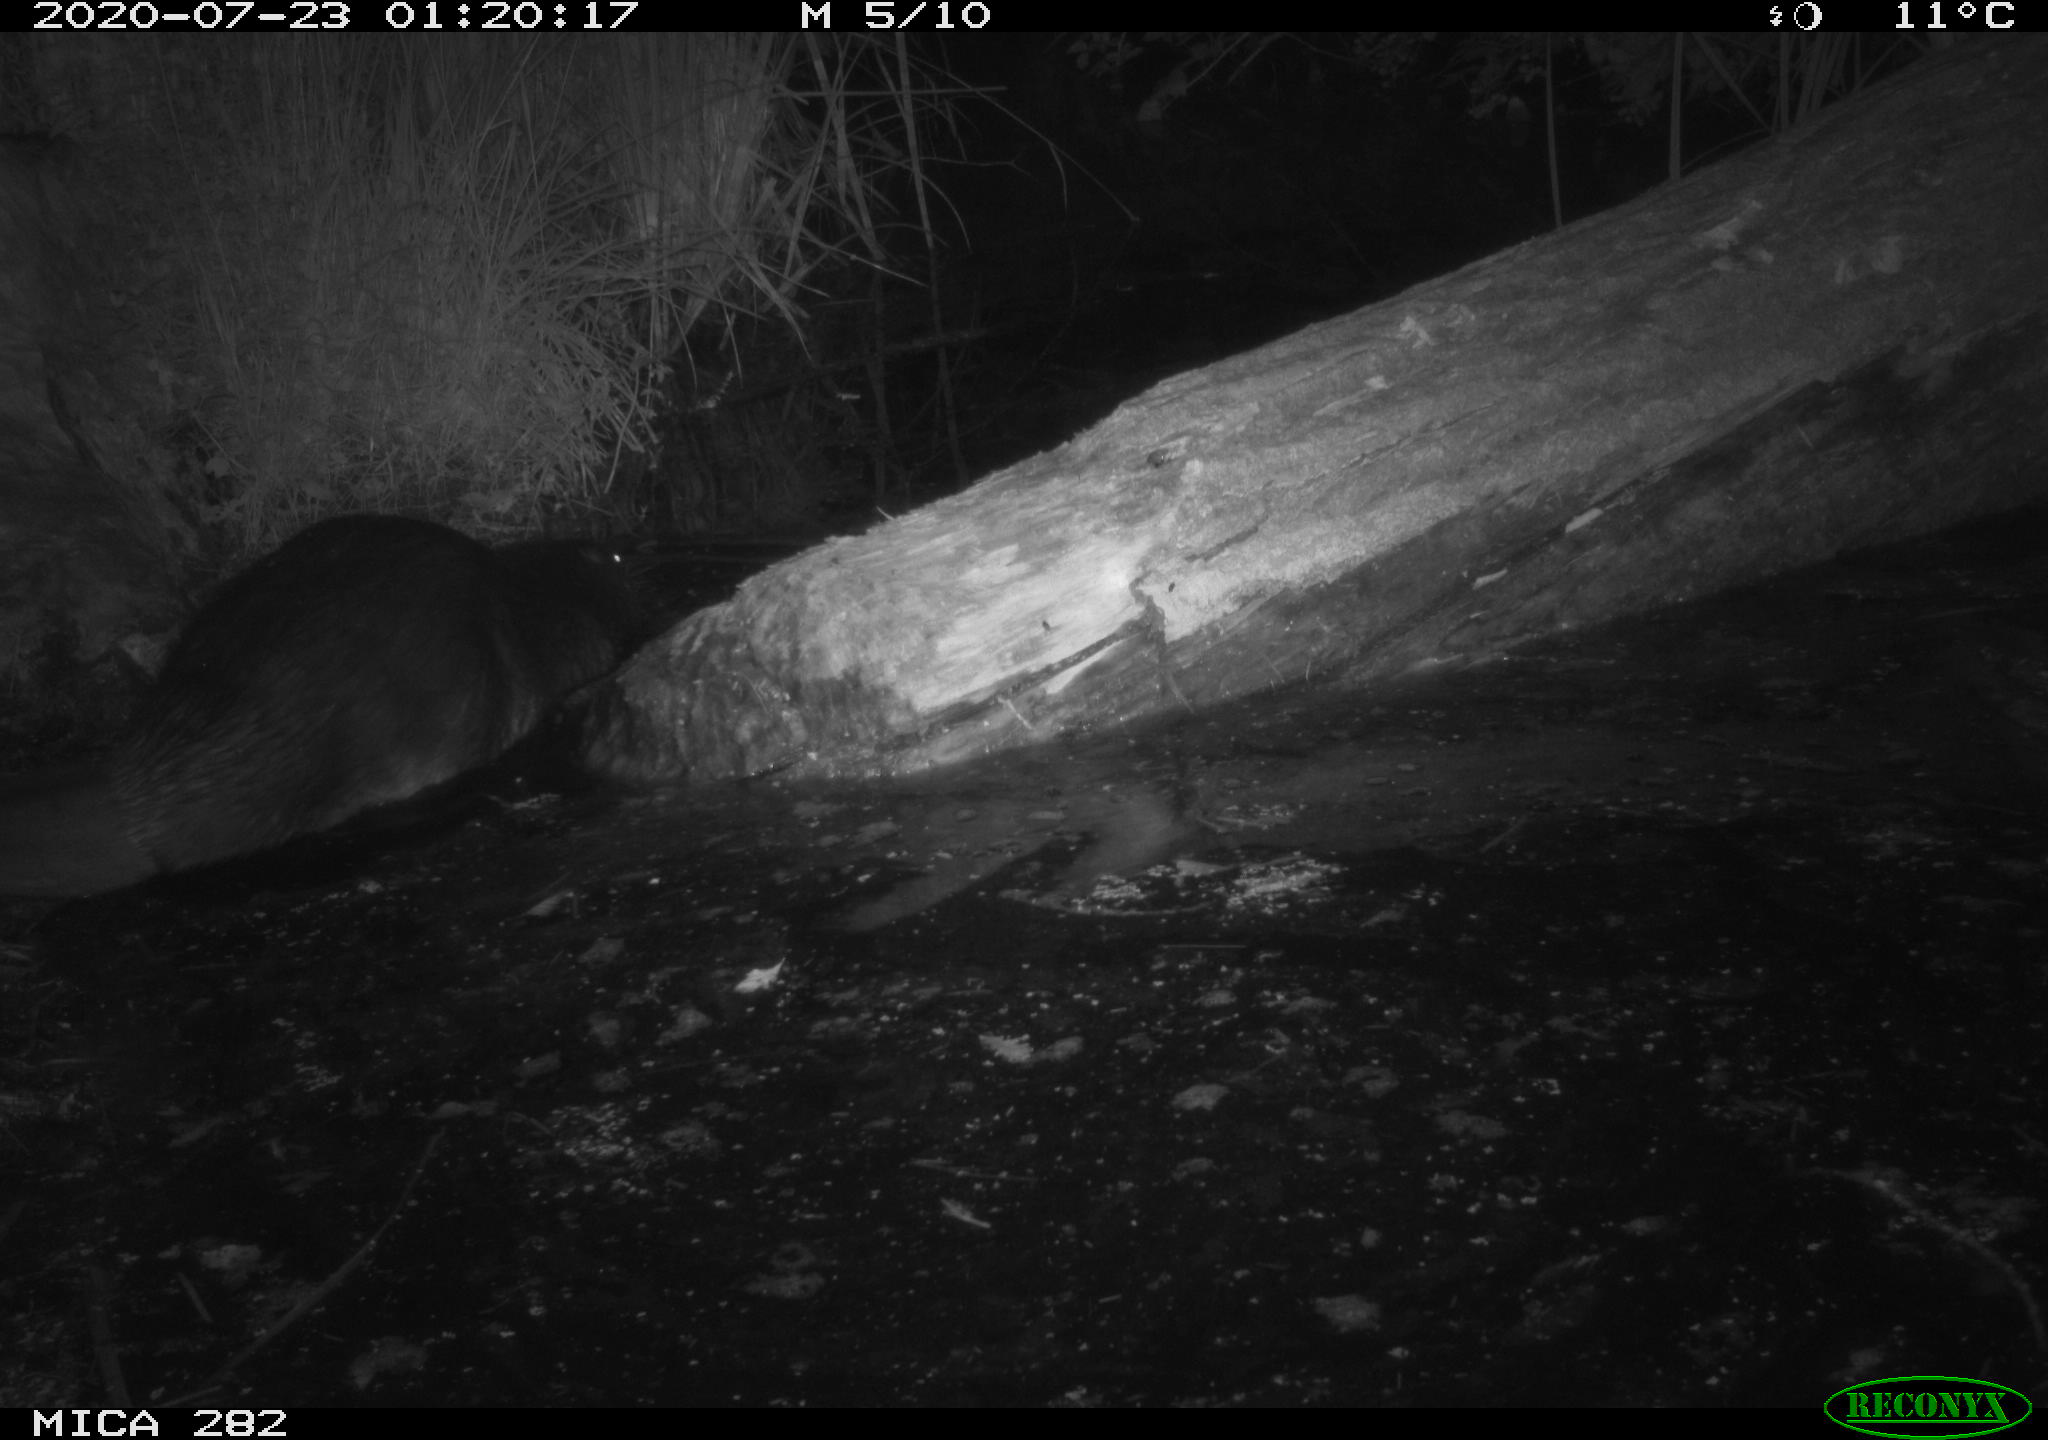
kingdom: Animalia
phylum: Chordata
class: Mammalia
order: Rodentia
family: Castoridae
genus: Castor
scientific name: Castor fiber
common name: Eurasian beaver
